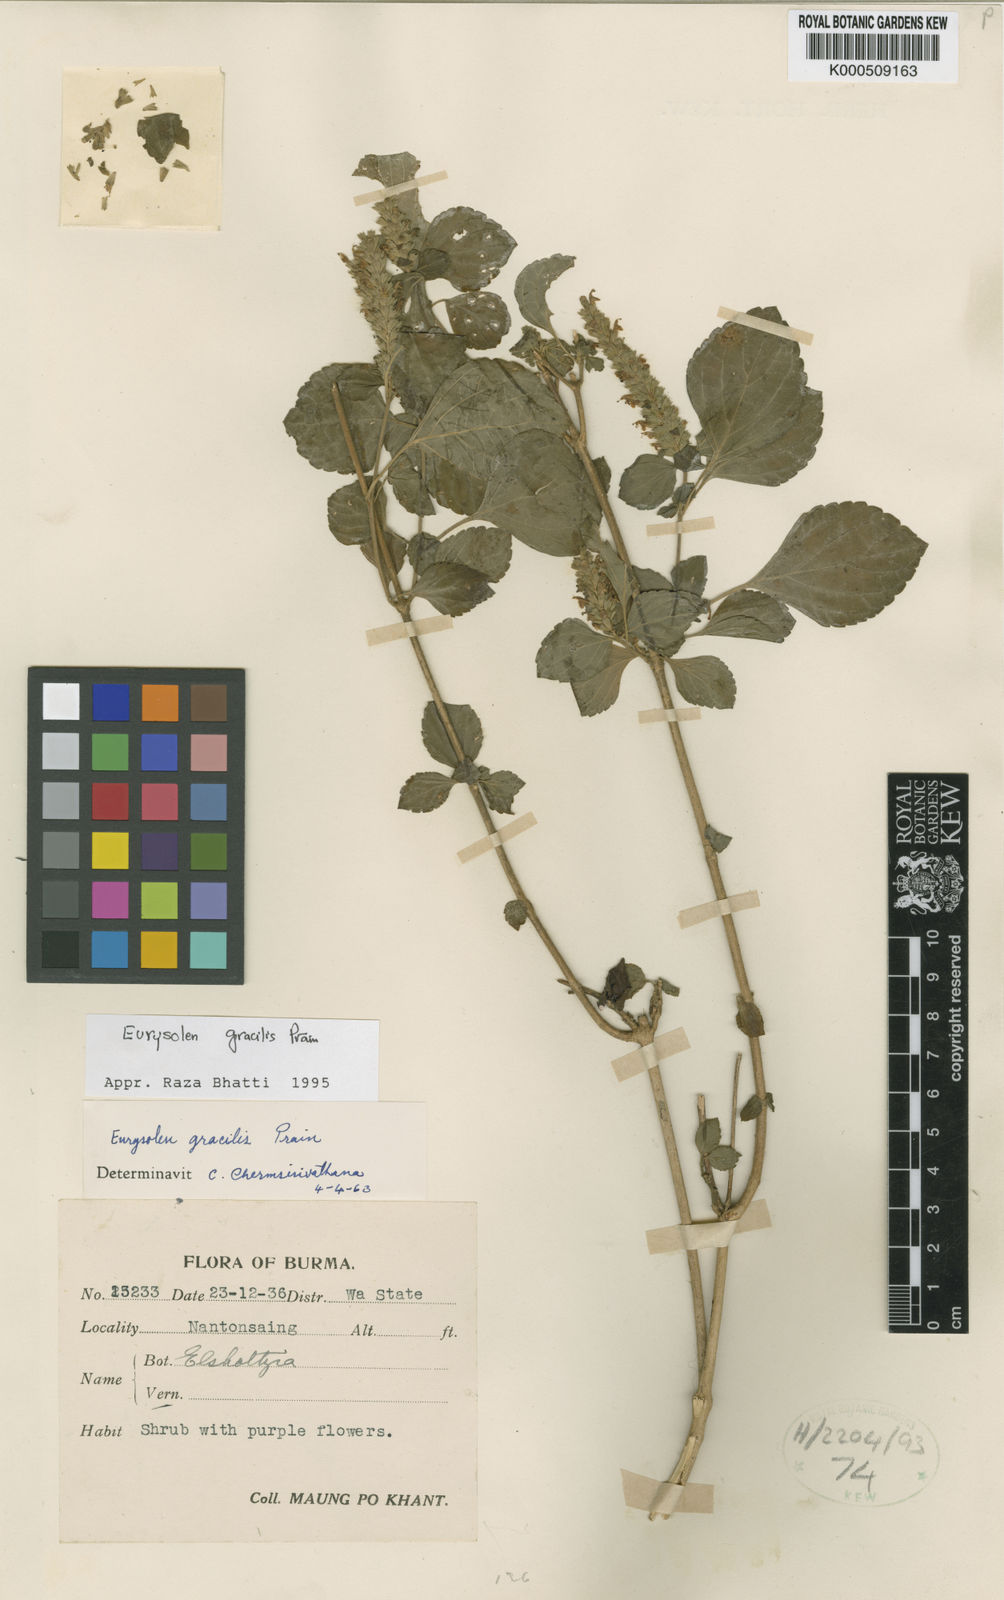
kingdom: Plantae
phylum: Tracheophyta
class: Magnoliopsida
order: Lamiales
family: Lamiaceae
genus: Eurysolen
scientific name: Eurysolen gracilis
